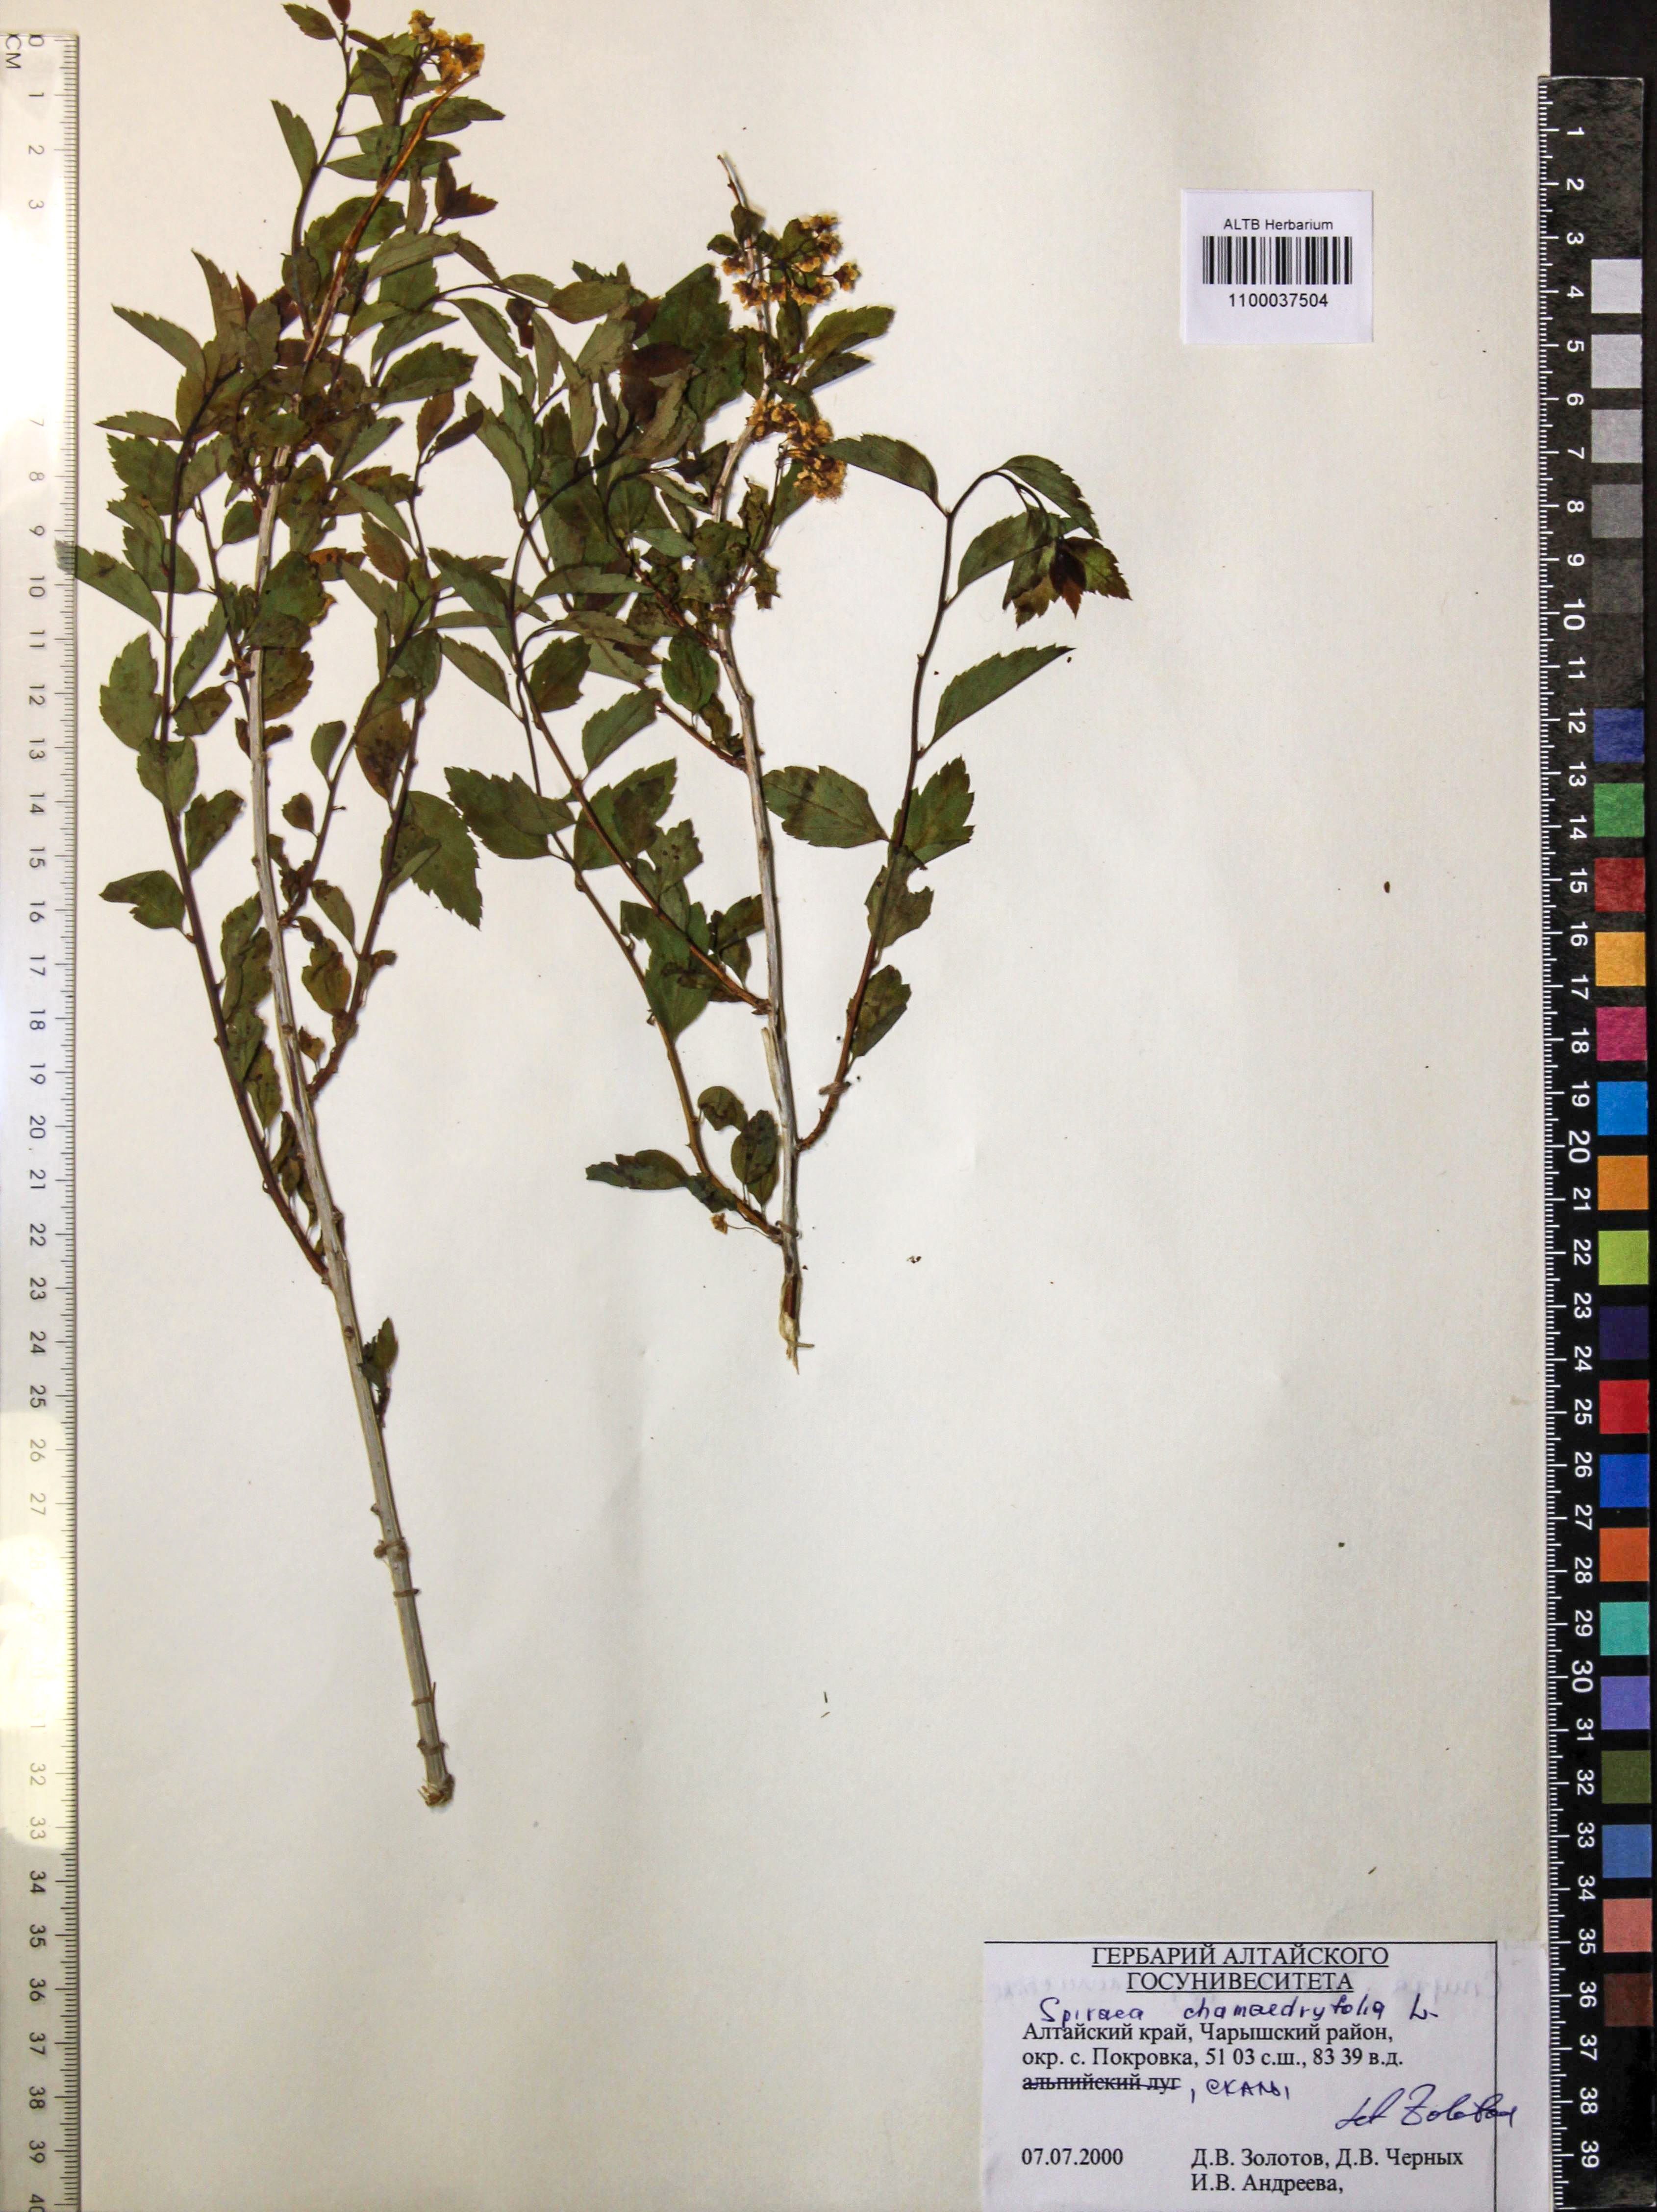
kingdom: Plantae
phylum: Tracheophyta
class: Magnoliopsida
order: Rosales
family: Rosaceae
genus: Spiraea
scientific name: Spiraea chamaedryfolia
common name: Elm-leaved spiraea
